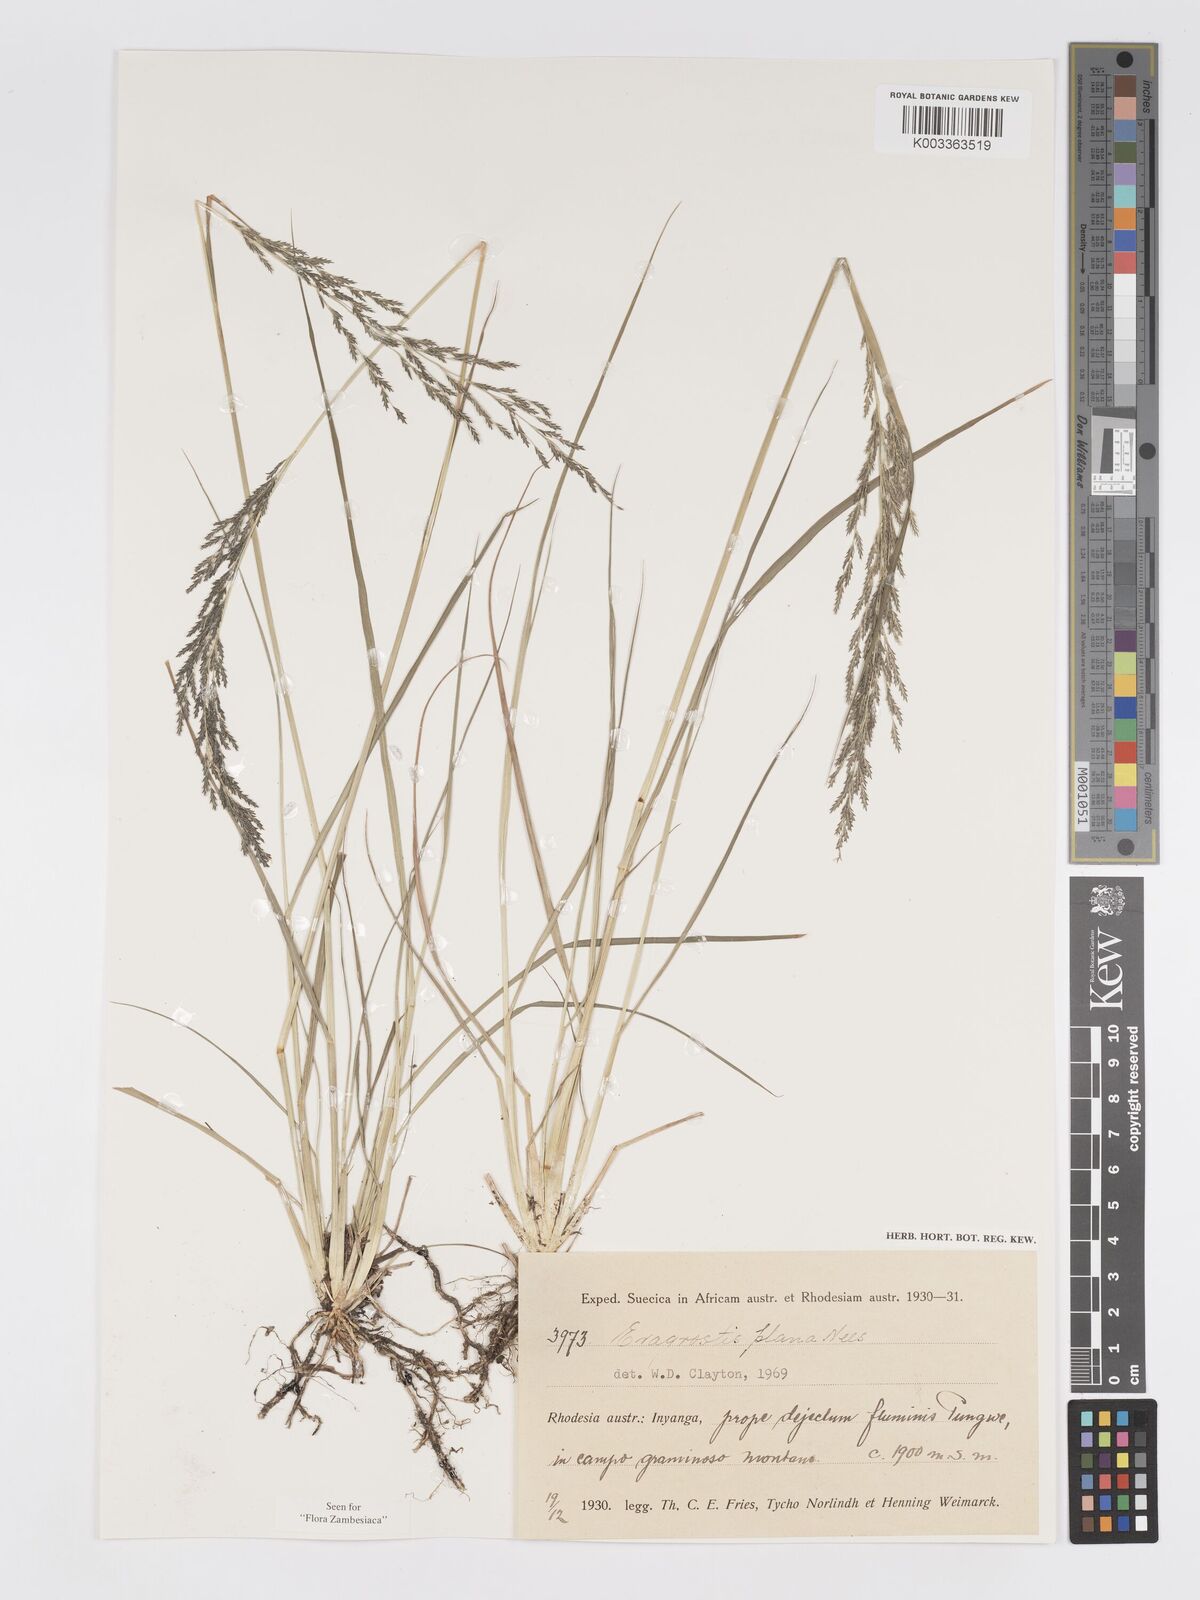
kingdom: Plantae
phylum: Tracheophyta
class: Liliopsida
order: Poales
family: Poaceae
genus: Eragrostis
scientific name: Eragrostis plana
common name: South african lovegrass
